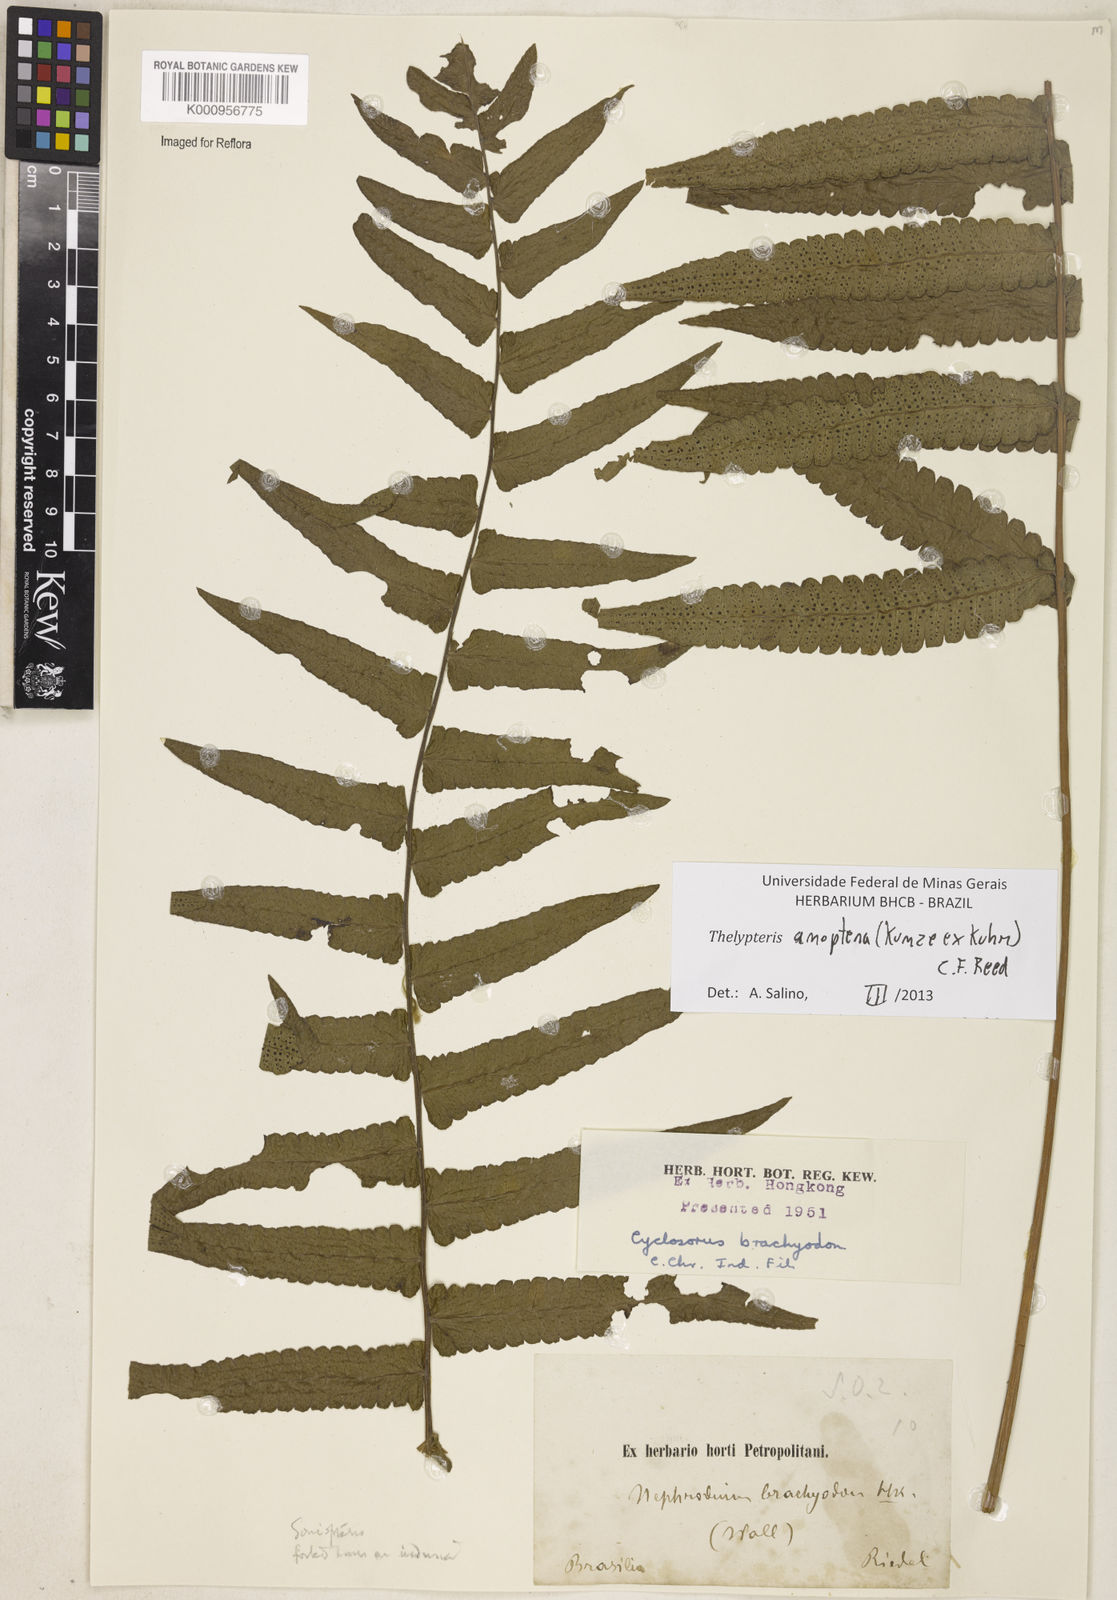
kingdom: Plantae
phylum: Tracheophyta
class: Polypodiopsida
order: Polypodiales
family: Thelypteridaceae
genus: Goniopteris
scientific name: Goniopteris anopteros
